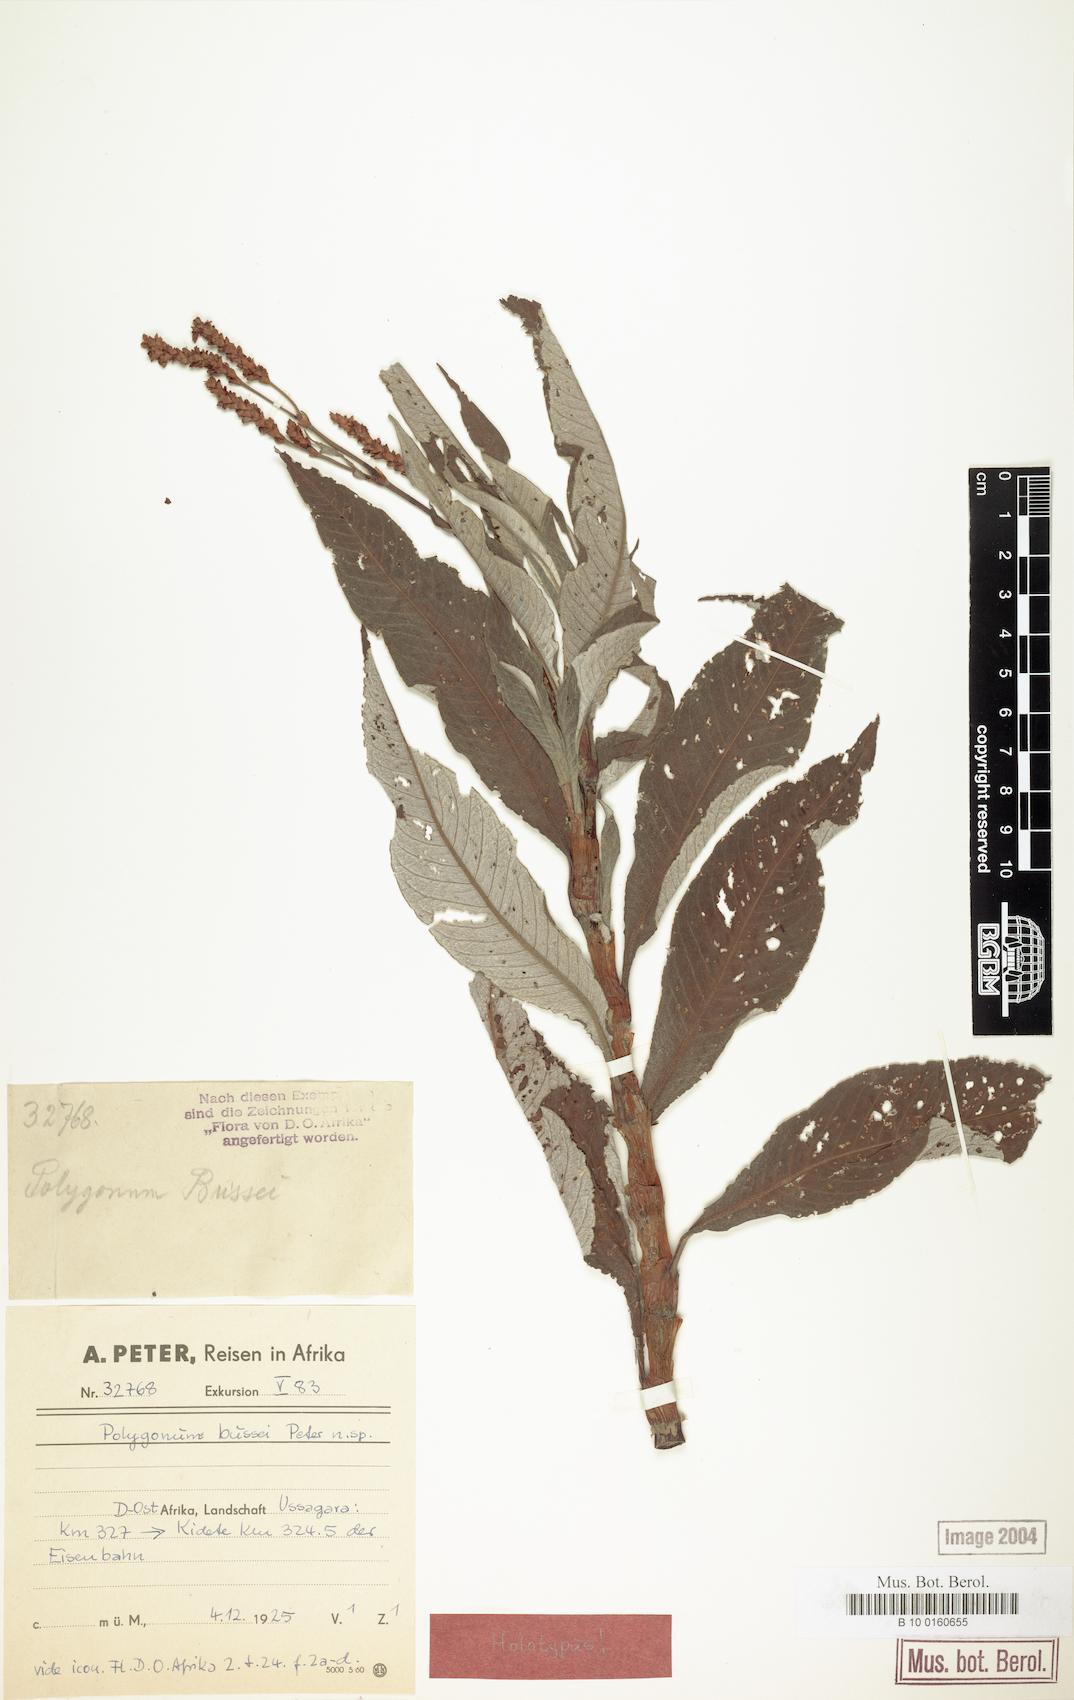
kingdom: Plantae
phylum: Tracheophyta
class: Magnoliopsida
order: Caryophyllales
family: Polygonaceae
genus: Persicaria
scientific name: Persicaria senegalensis
